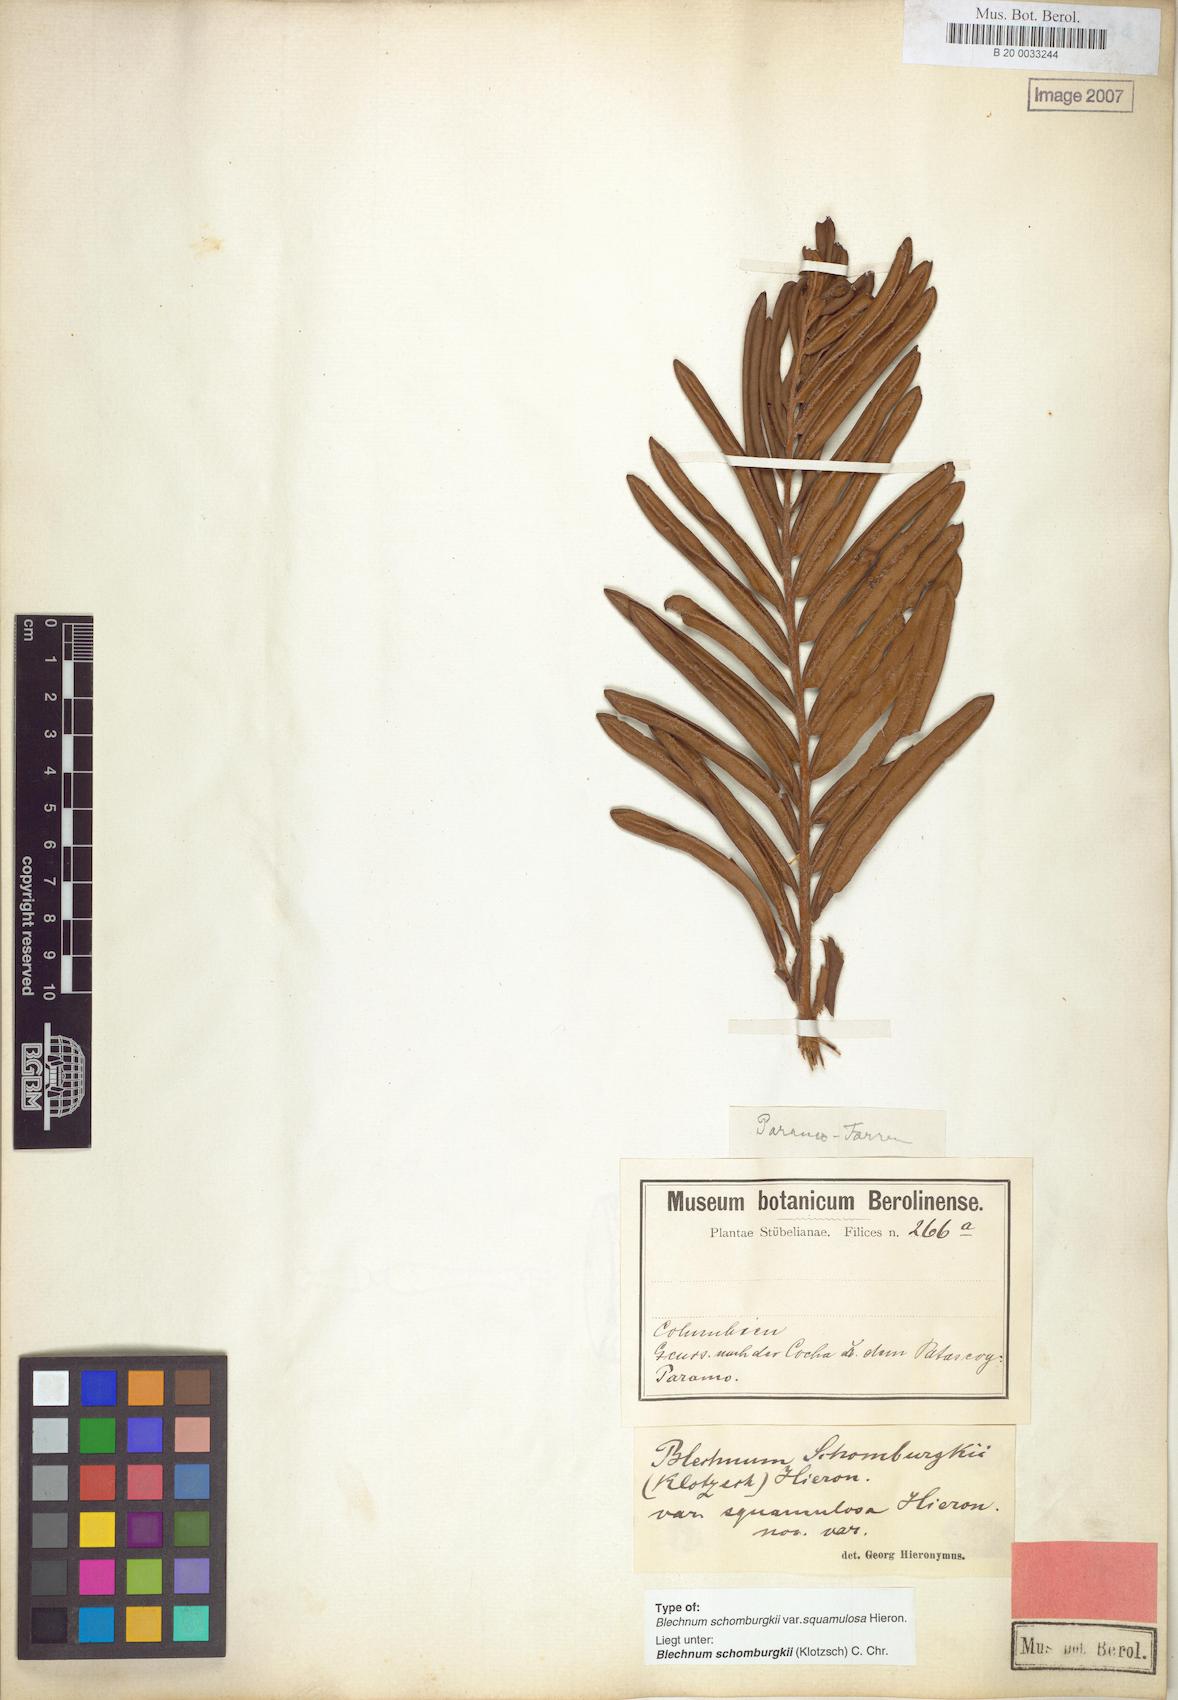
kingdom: Plantae
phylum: Tracheophyta
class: Polypodiopsida
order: Polypodiales
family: Blechnaceae
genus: Lomariocycas
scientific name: Lomariocycas schomburgkii
